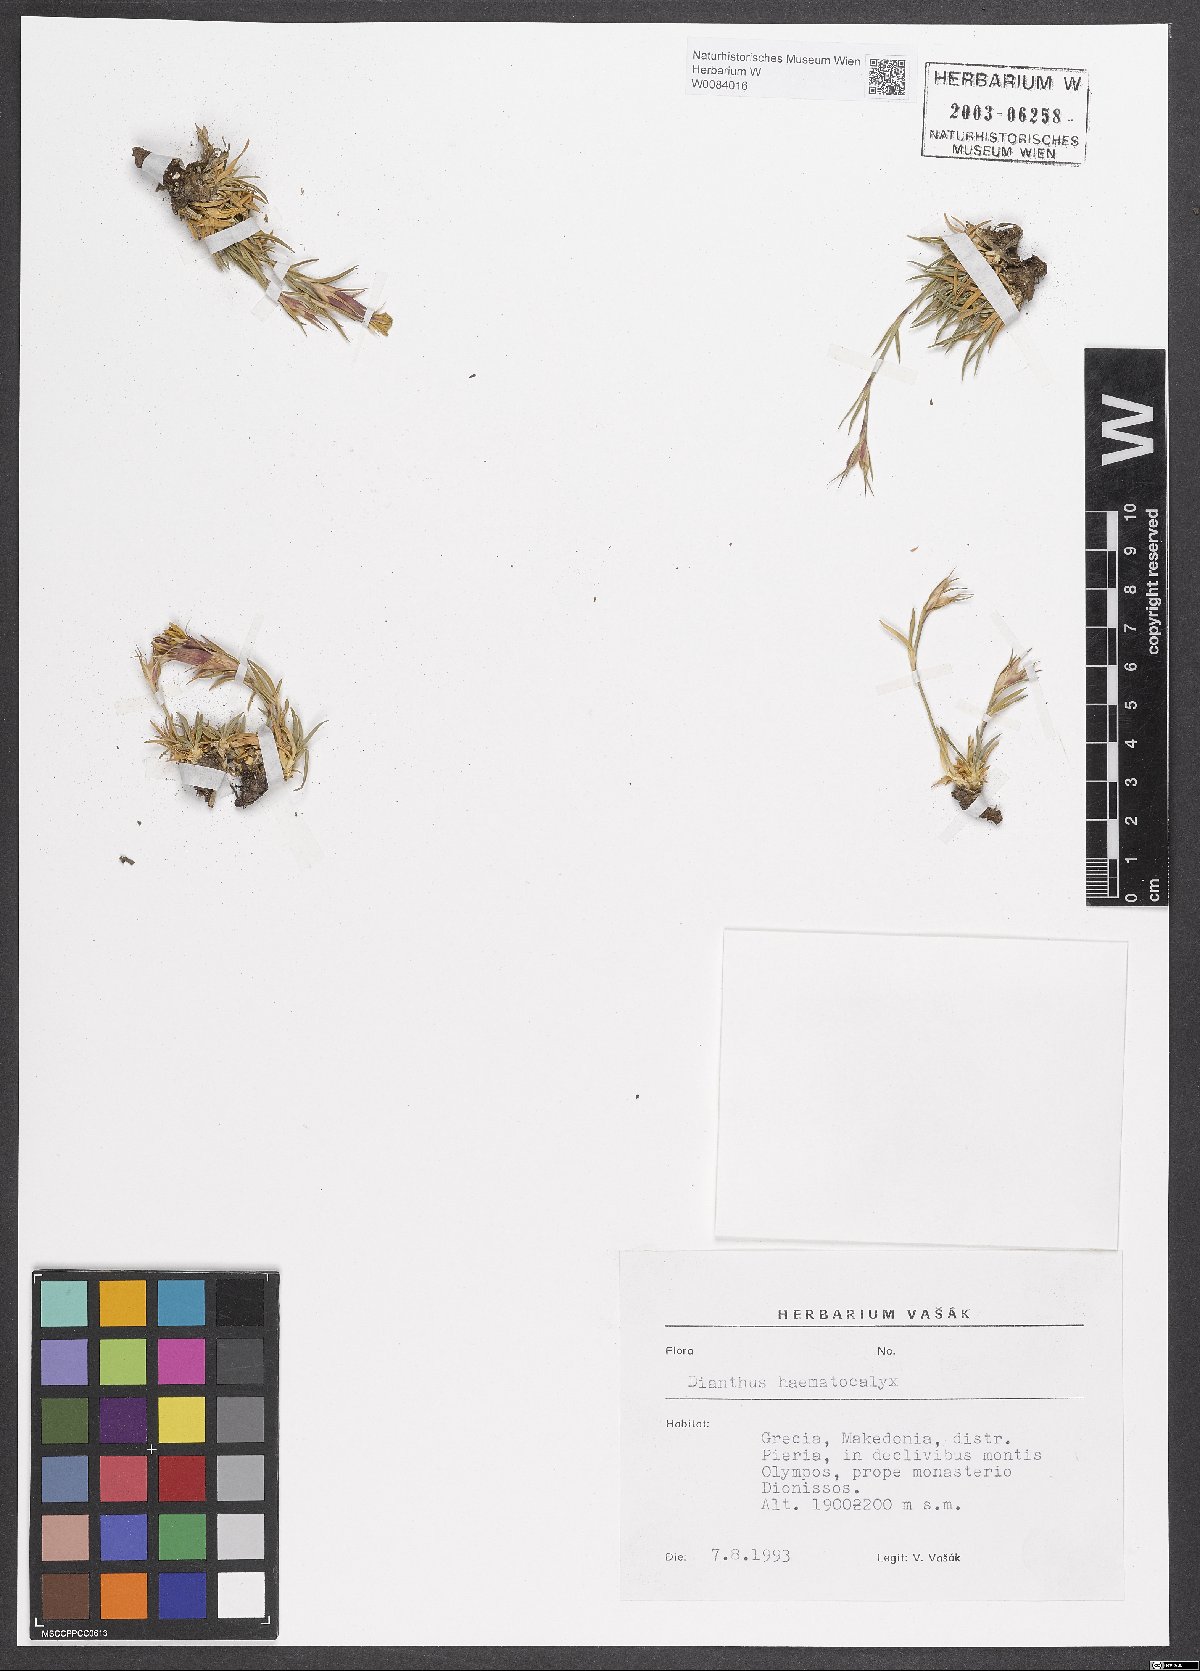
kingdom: Plantae
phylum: Tracheophyta
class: Magnoliopsida
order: Caryophyllales
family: Caryophyllaceae
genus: Dianthus
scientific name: Dianthus haematocalyx
